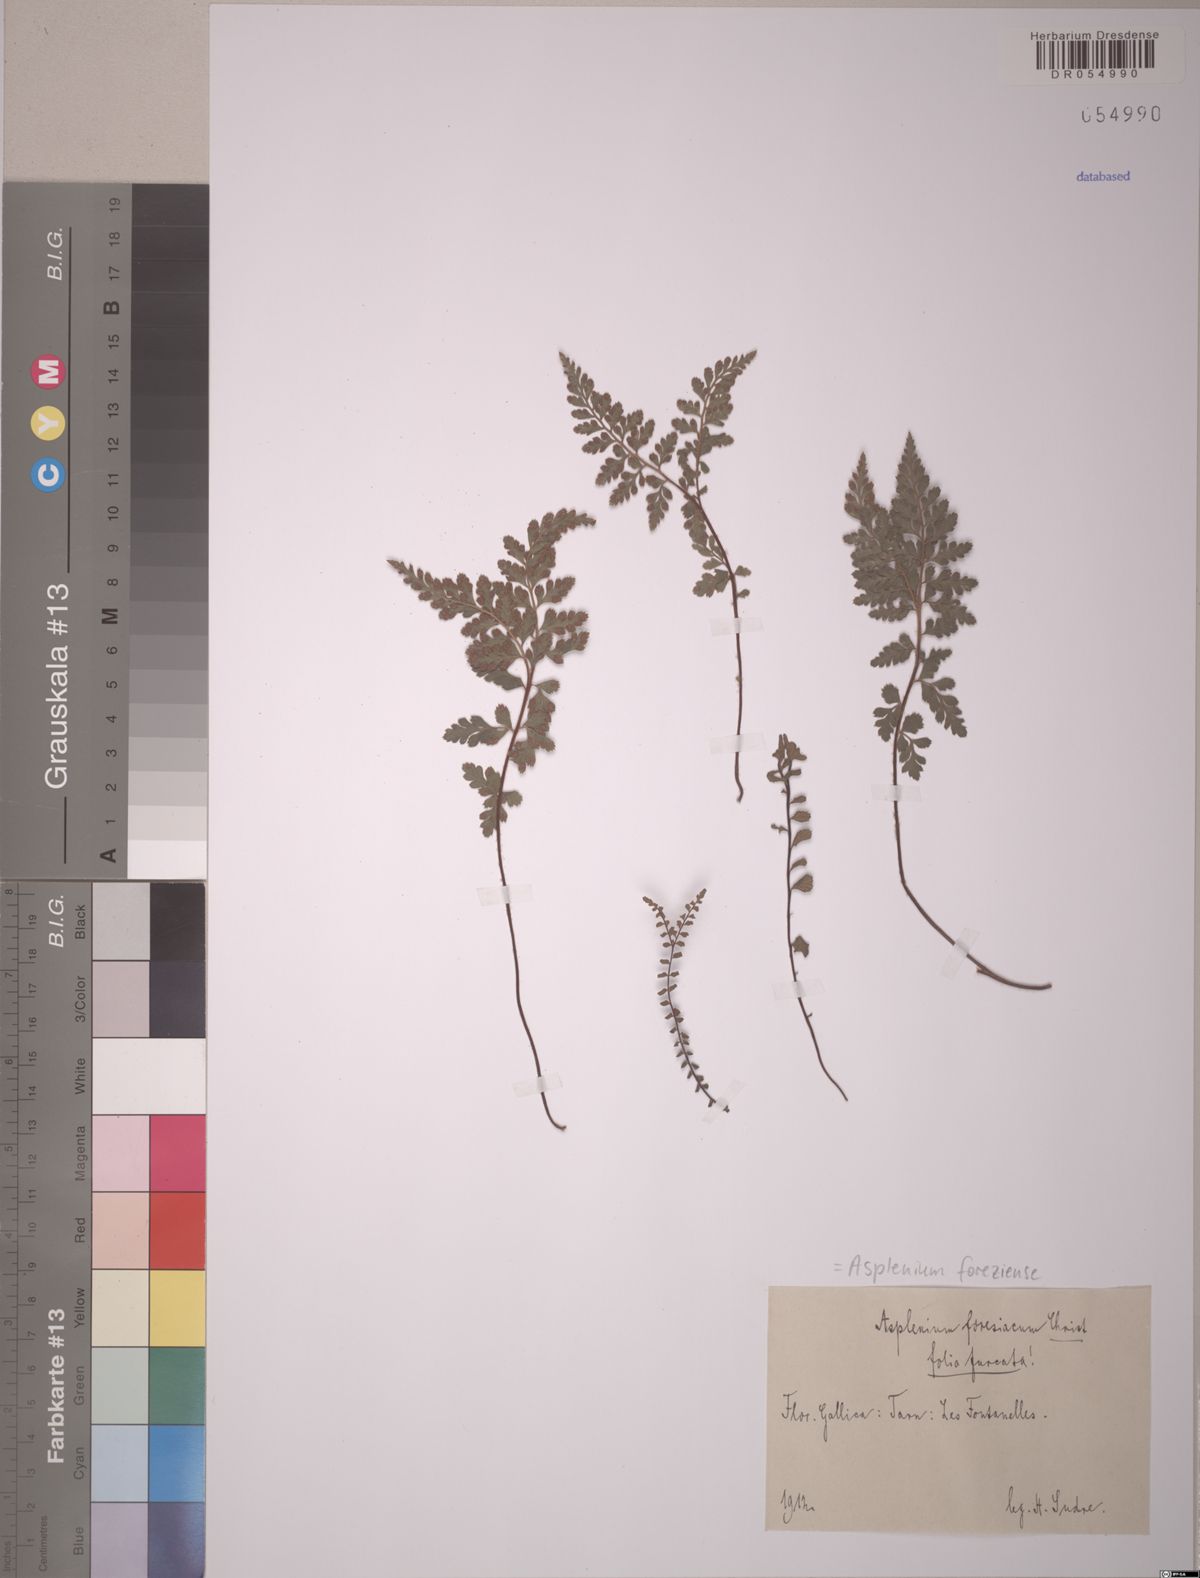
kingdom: Plantae
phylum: Tracheophyta
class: Polypodiopsida
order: Polypodiales
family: Aspleniaceae
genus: Asplenium
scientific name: Asplenium foreziense
